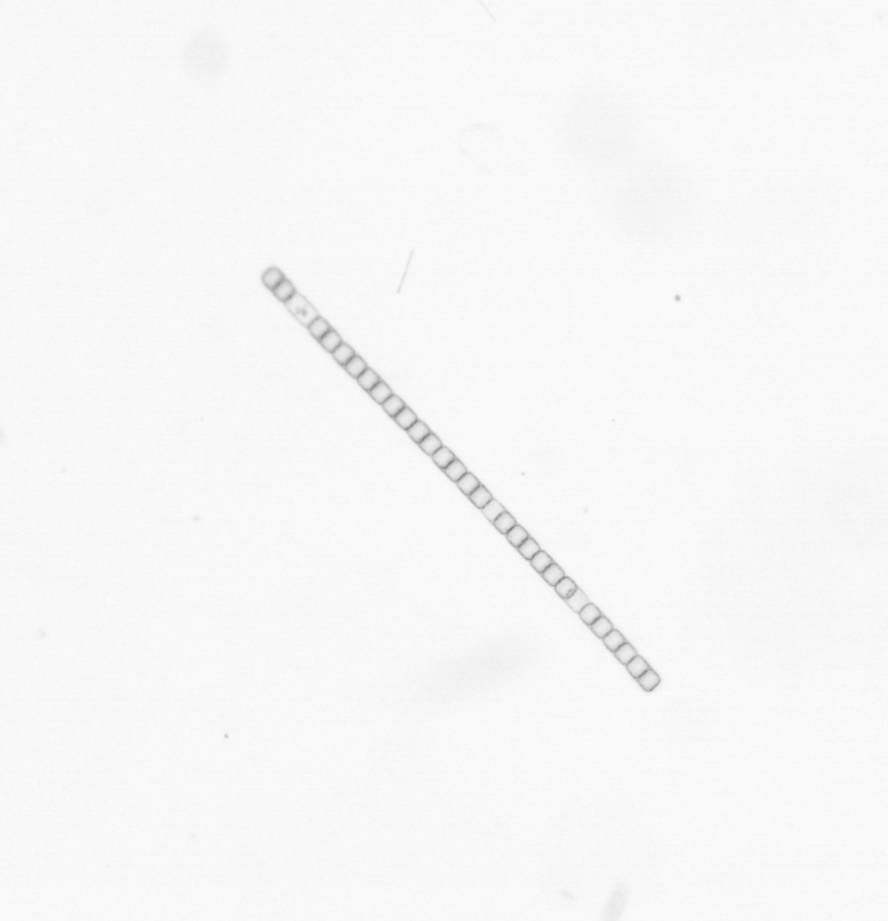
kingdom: Chromista
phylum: Ochrophyta
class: Bacillariophyceae
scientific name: Bacillariophyceae
